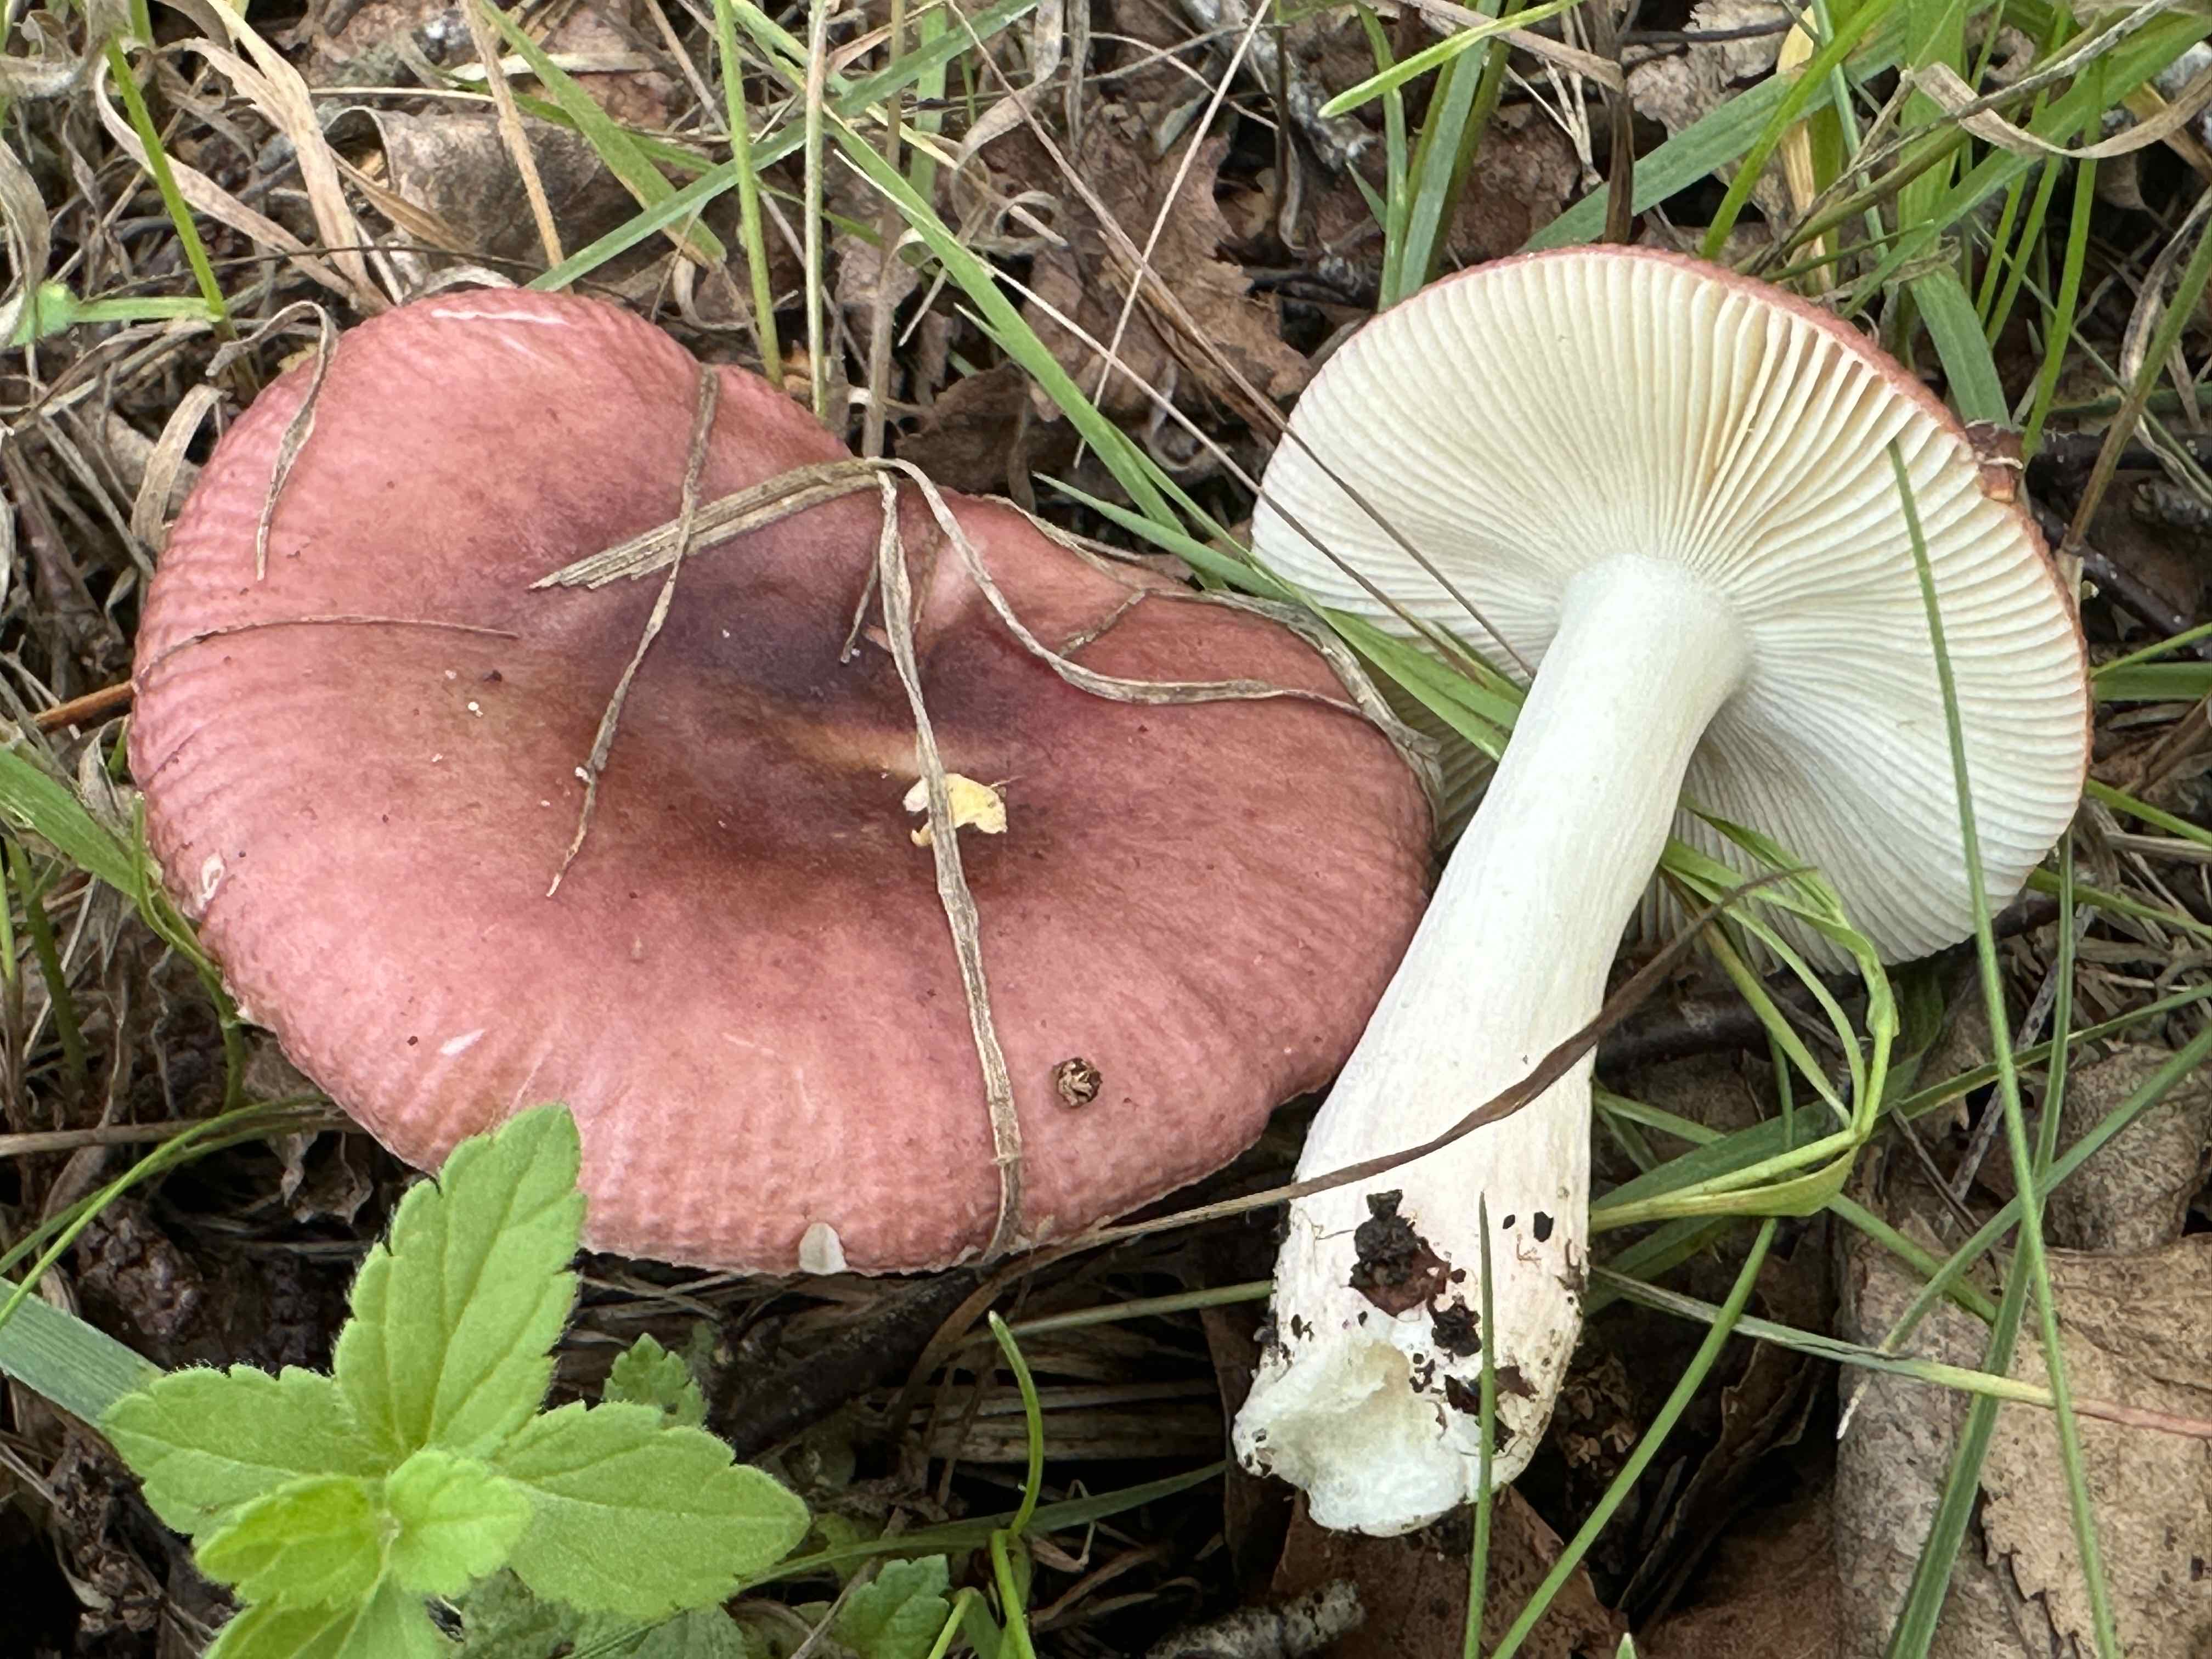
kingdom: Fungi
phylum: Basidiomycota
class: Agaricomycetes
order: Russulales
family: Russulaceae
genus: Russula
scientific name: Russula nitida
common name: året skørhat
